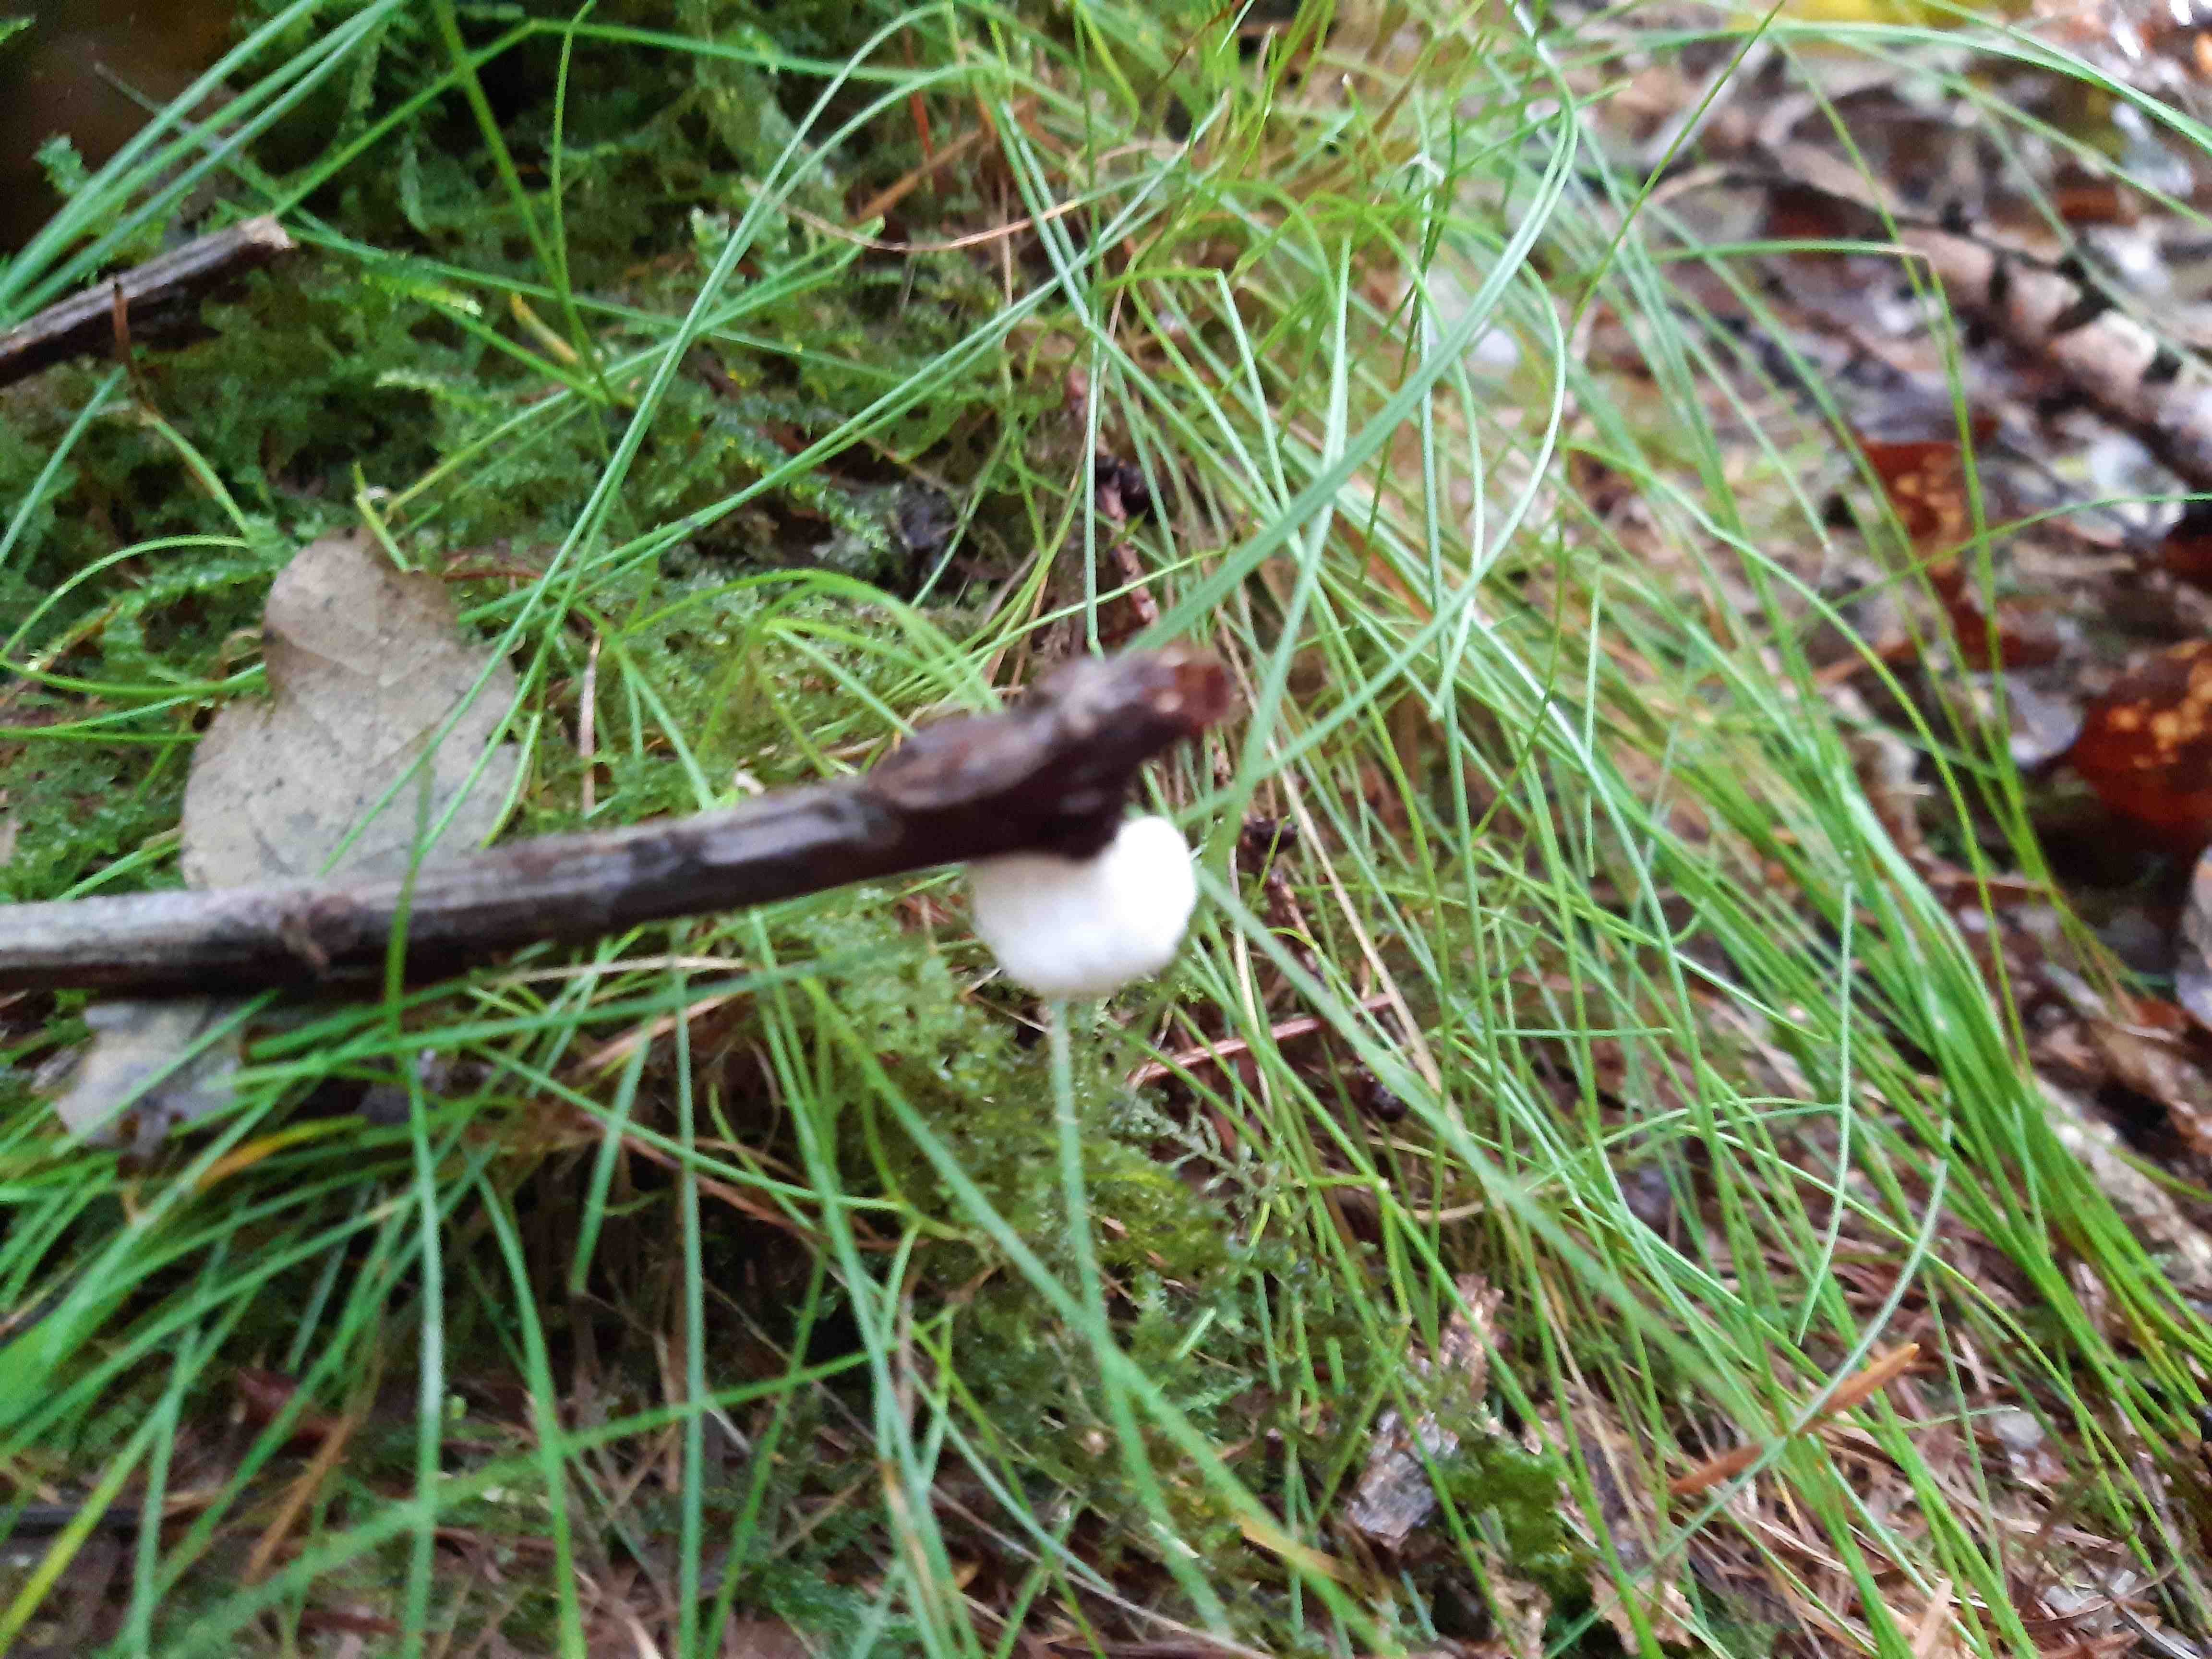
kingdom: Fungi
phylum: Basidiomycota
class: Agaricomycetes
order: Agaricales
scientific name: Agaricales
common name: champignonordenen
